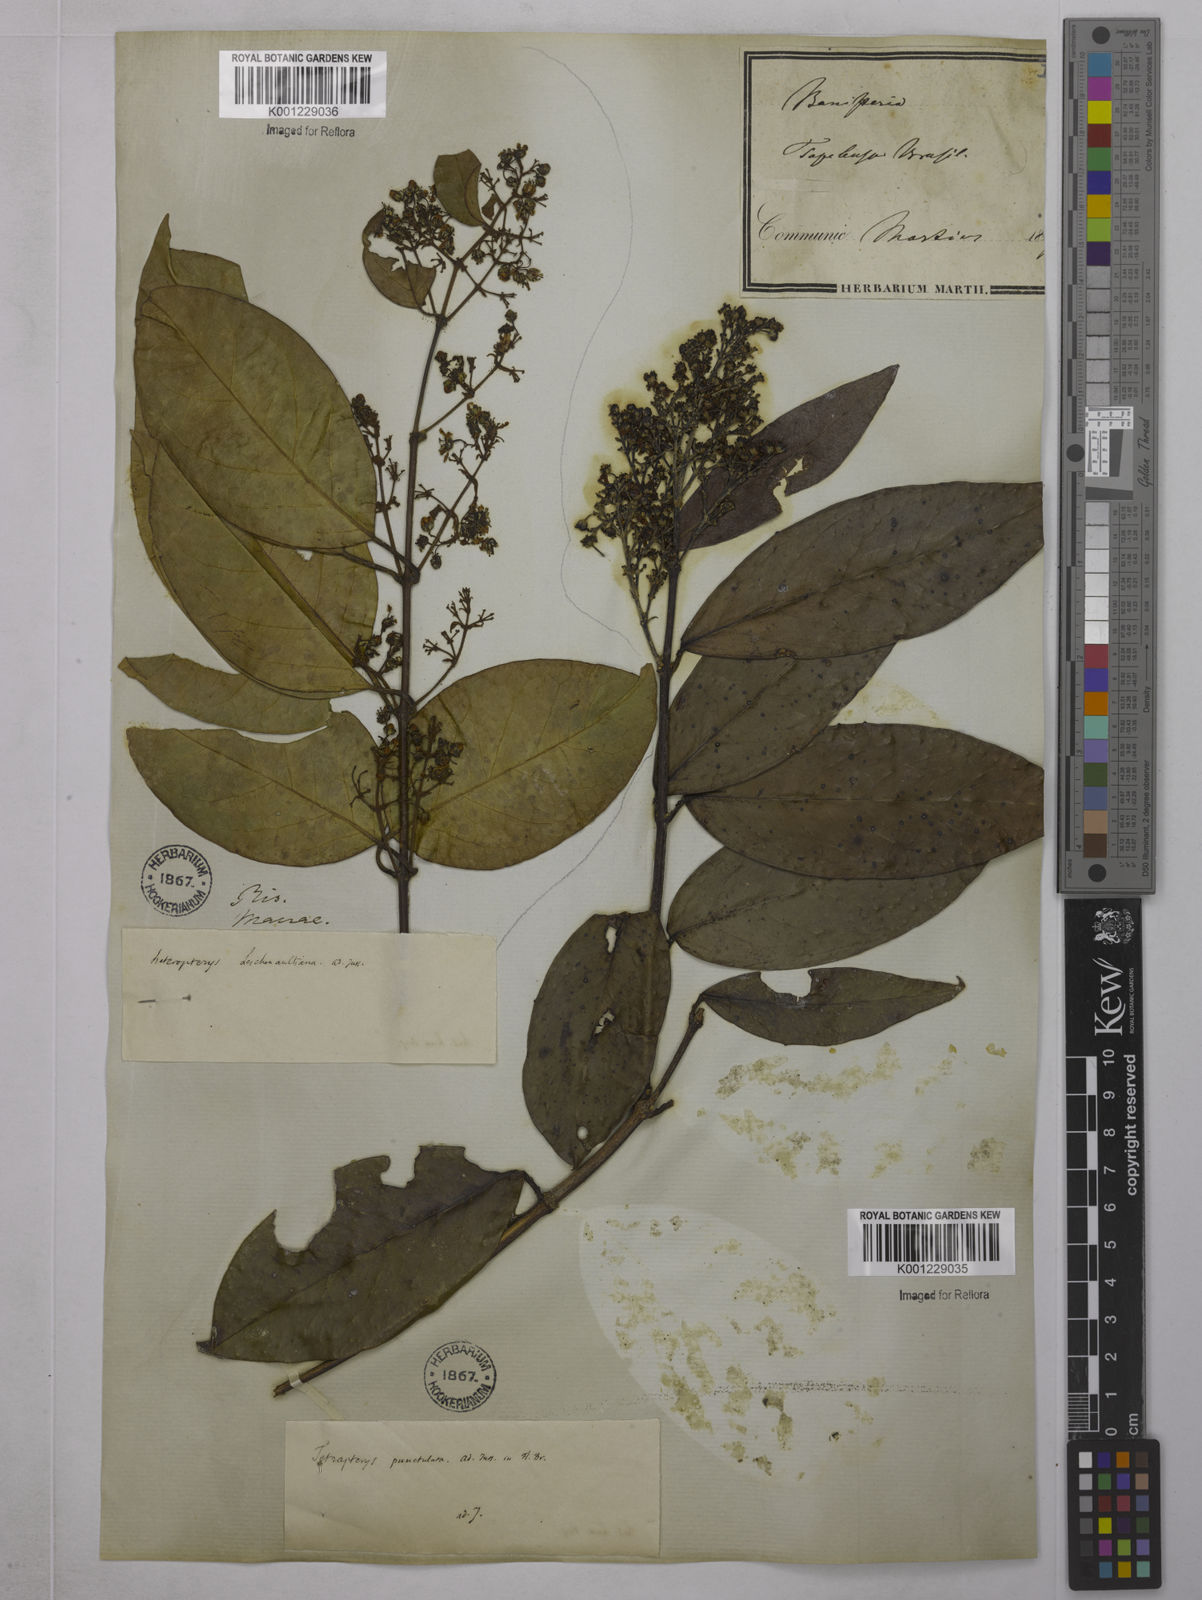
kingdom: Plantae
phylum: Tracheophyta
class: Magnoliopsida
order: Malpighiales
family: Malpighiaceae
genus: Niedenzuella
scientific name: Niedenzuella acutifolia
